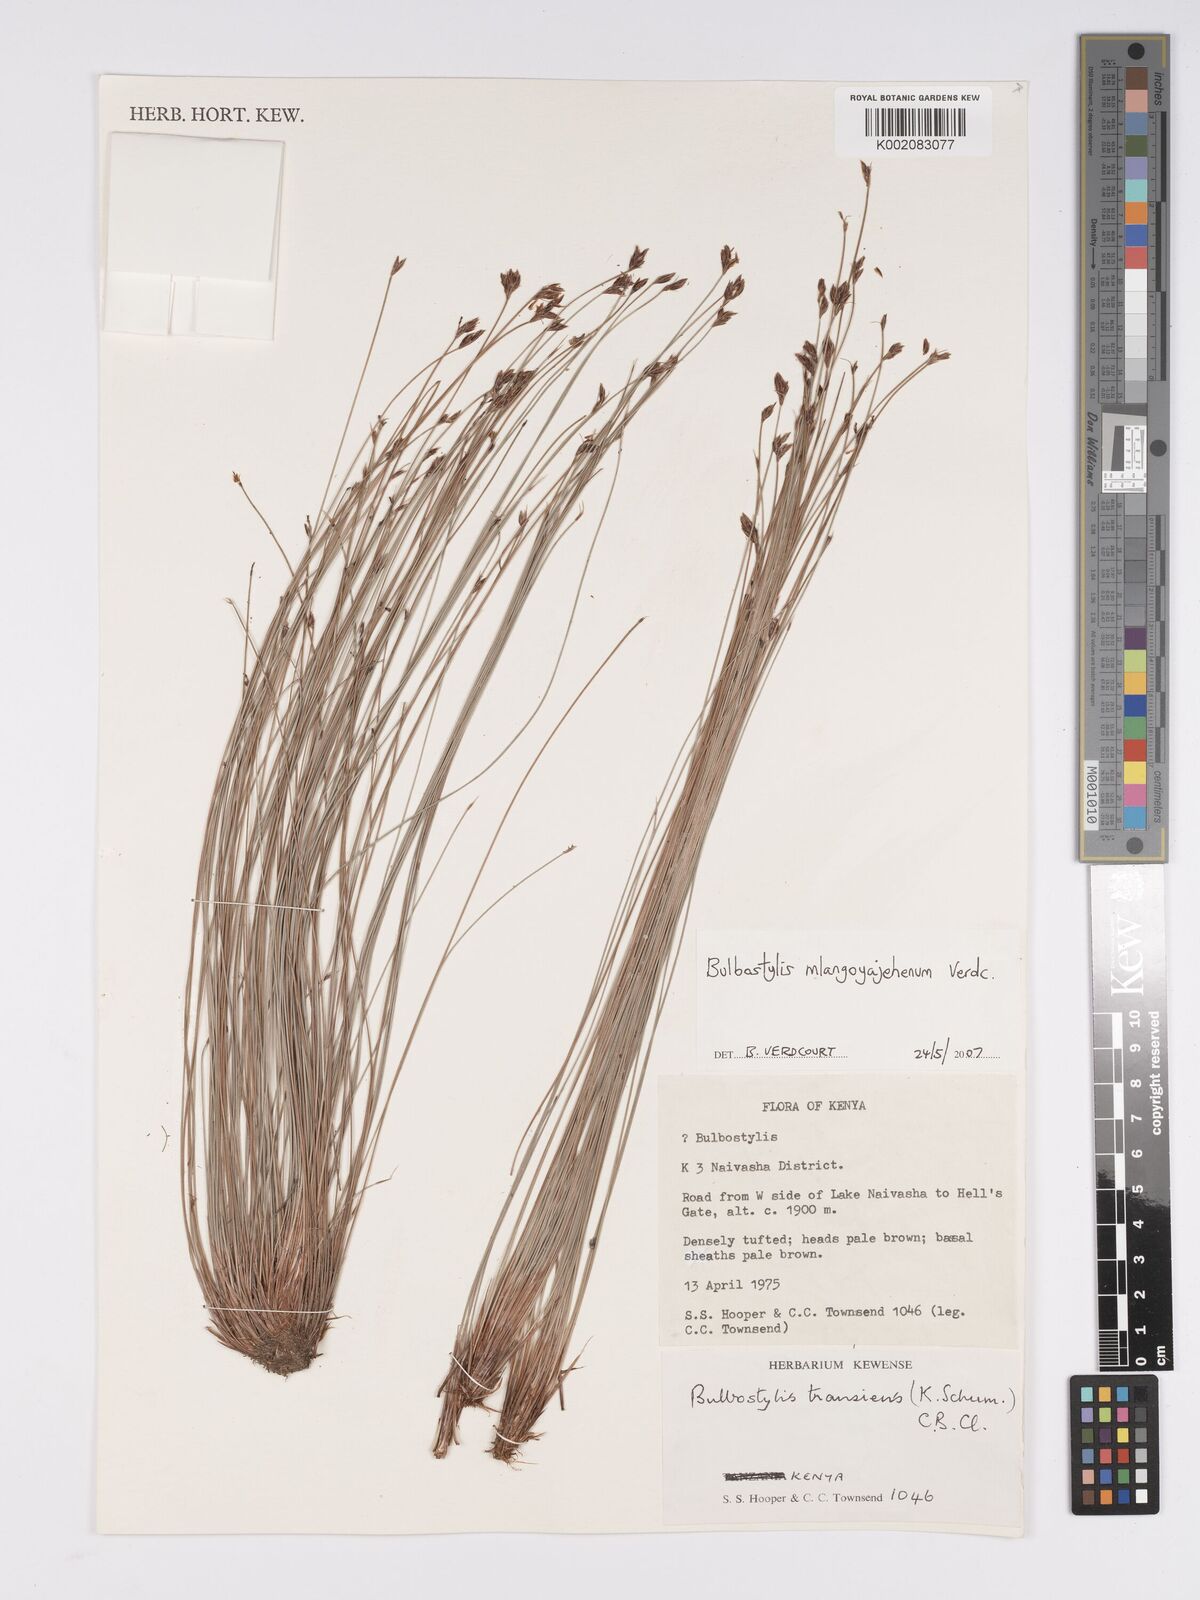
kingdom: Plantae
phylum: Tracheophyta
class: Liliopsida
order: Poales
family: Cyperaceae
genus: Bulbostylis
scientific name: Bulbostylis mlangoyajehenum
